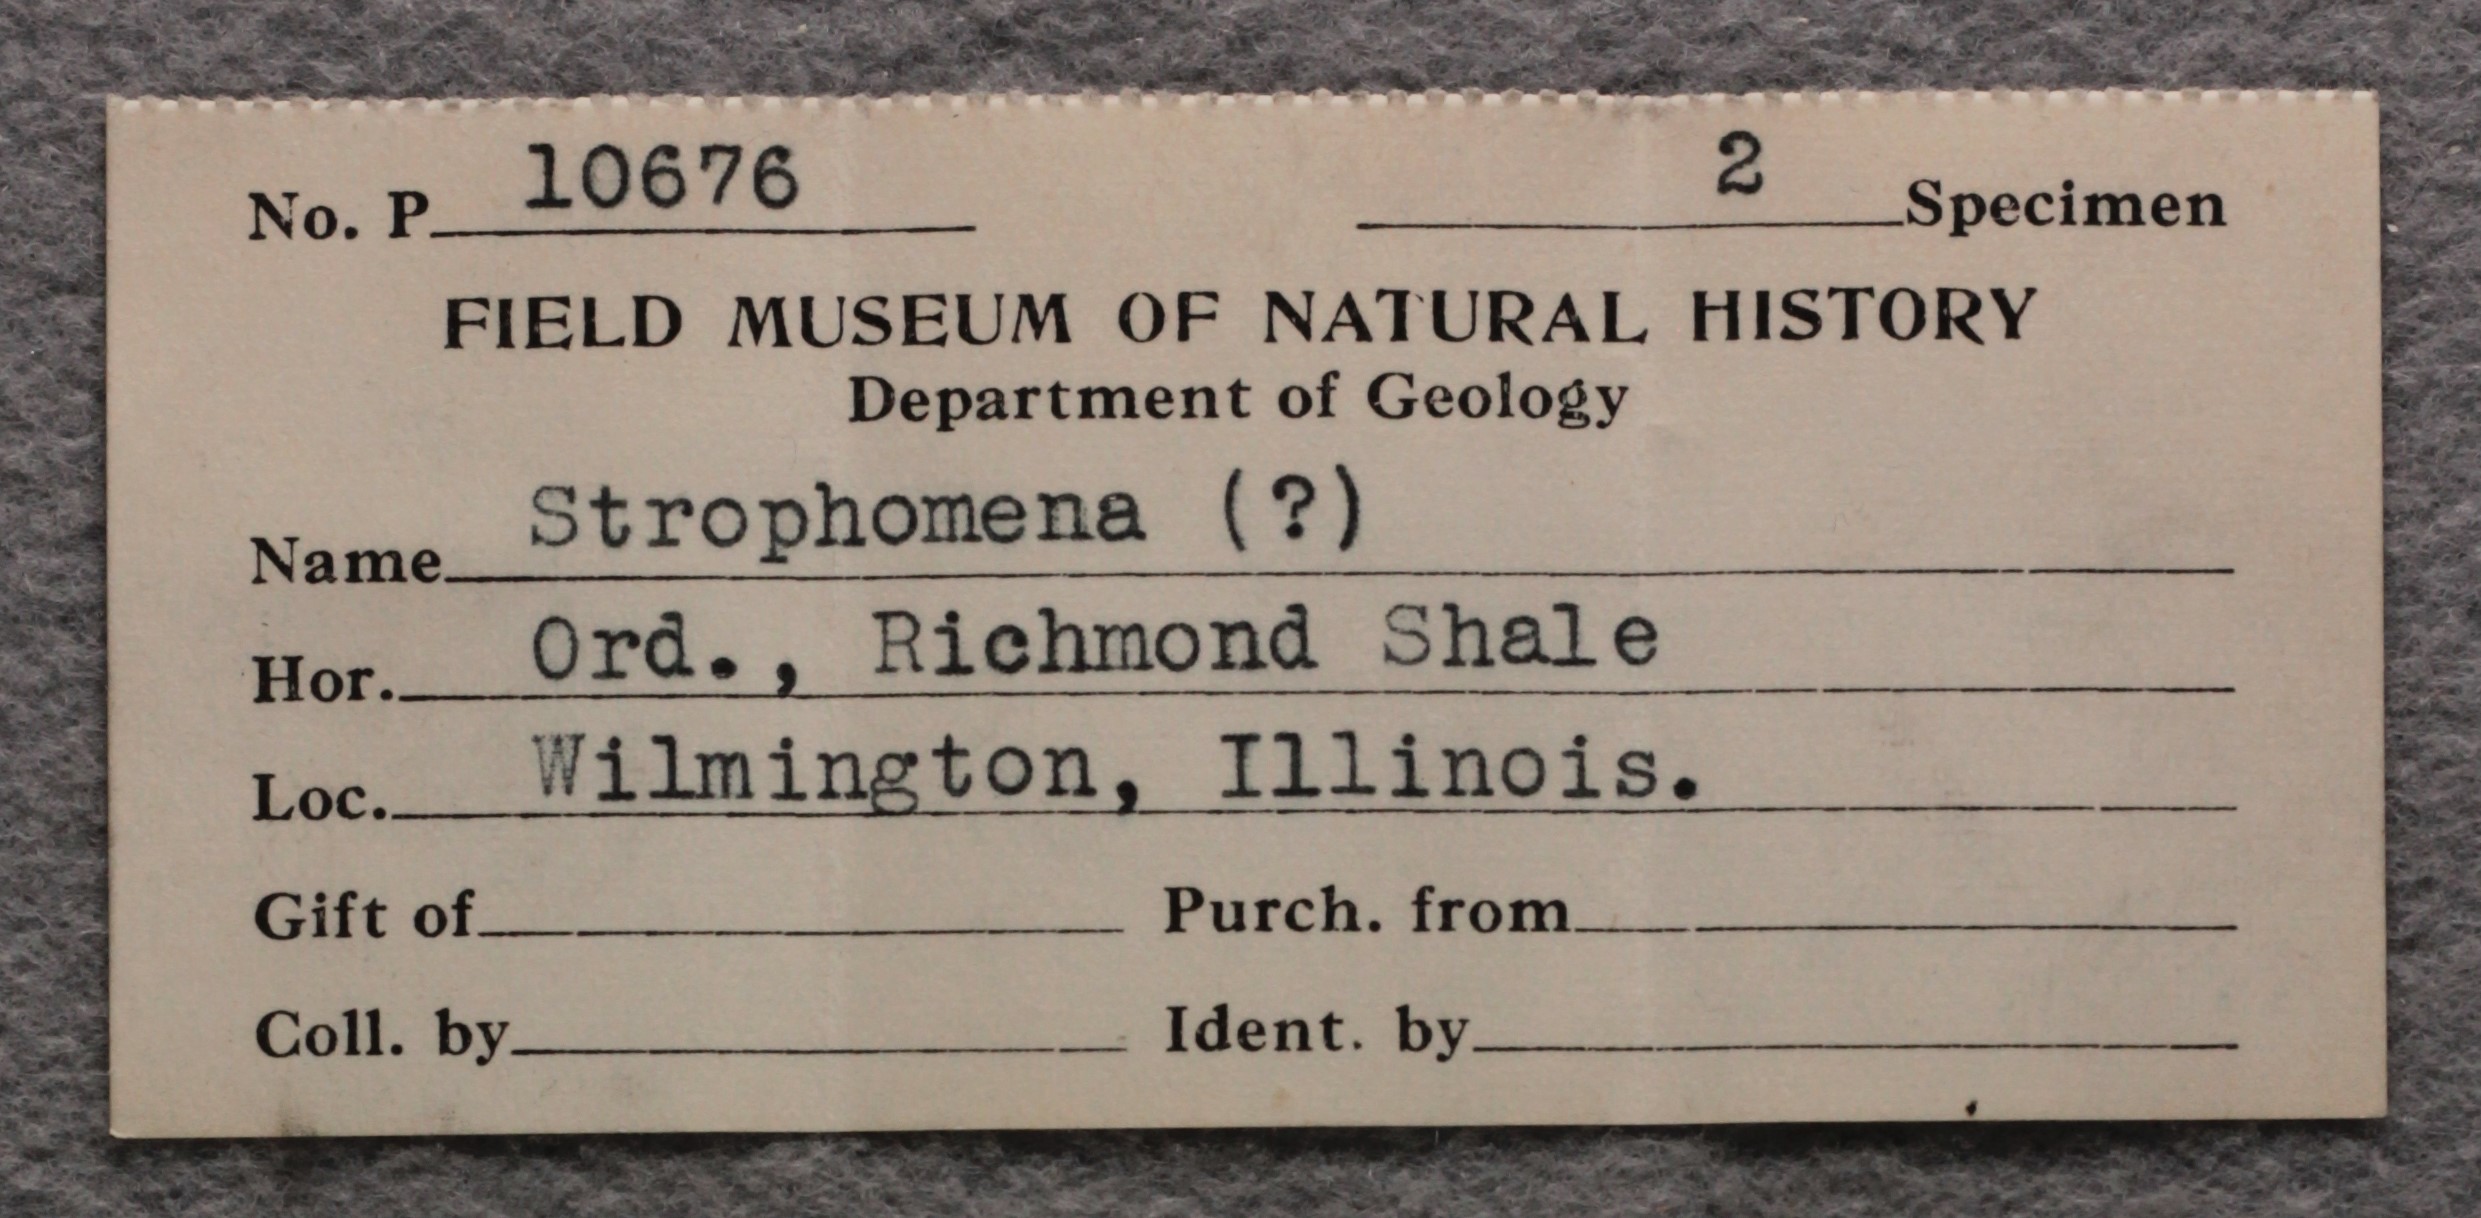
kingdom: Animalia
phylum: Brachiopoda
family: Strophomenidae
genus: Strophomena
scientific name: Strophomena
